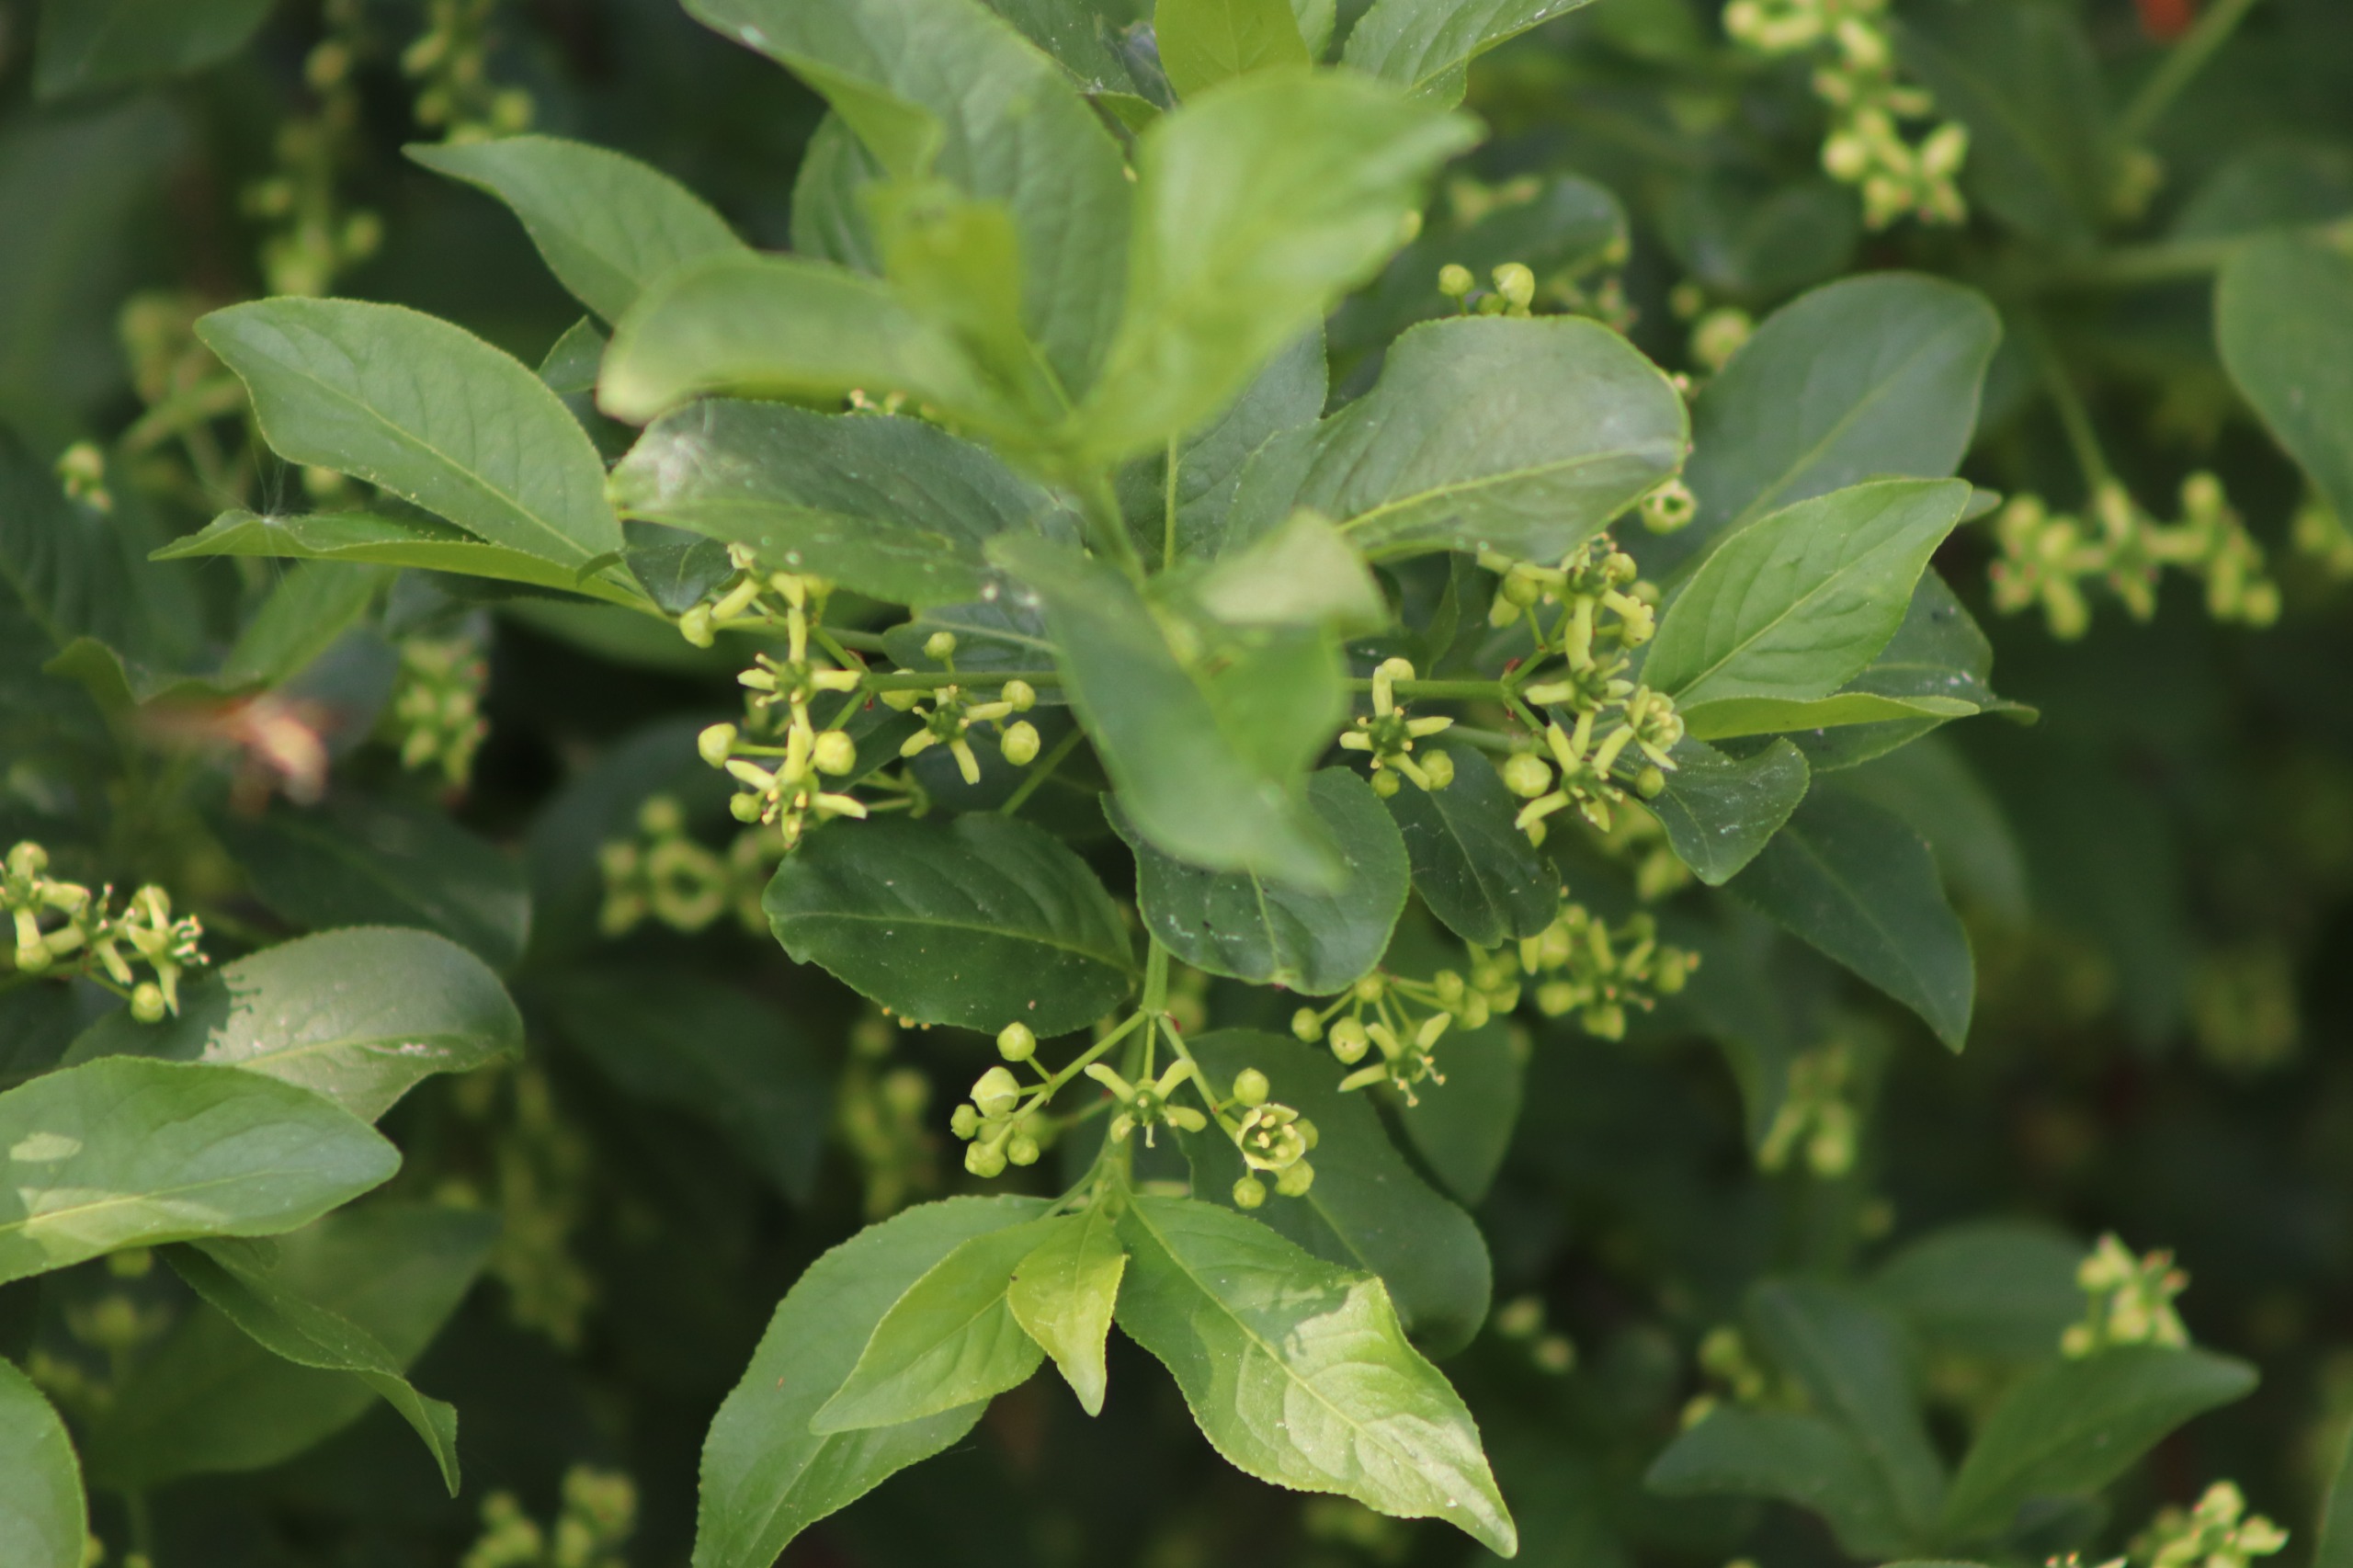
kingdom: Plantae
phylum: Tracheophyta
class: Magnoliopsida
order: Celastrales
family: Celastraceae
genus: Euonymus
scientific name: Euonymus europaeus
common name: Benved
